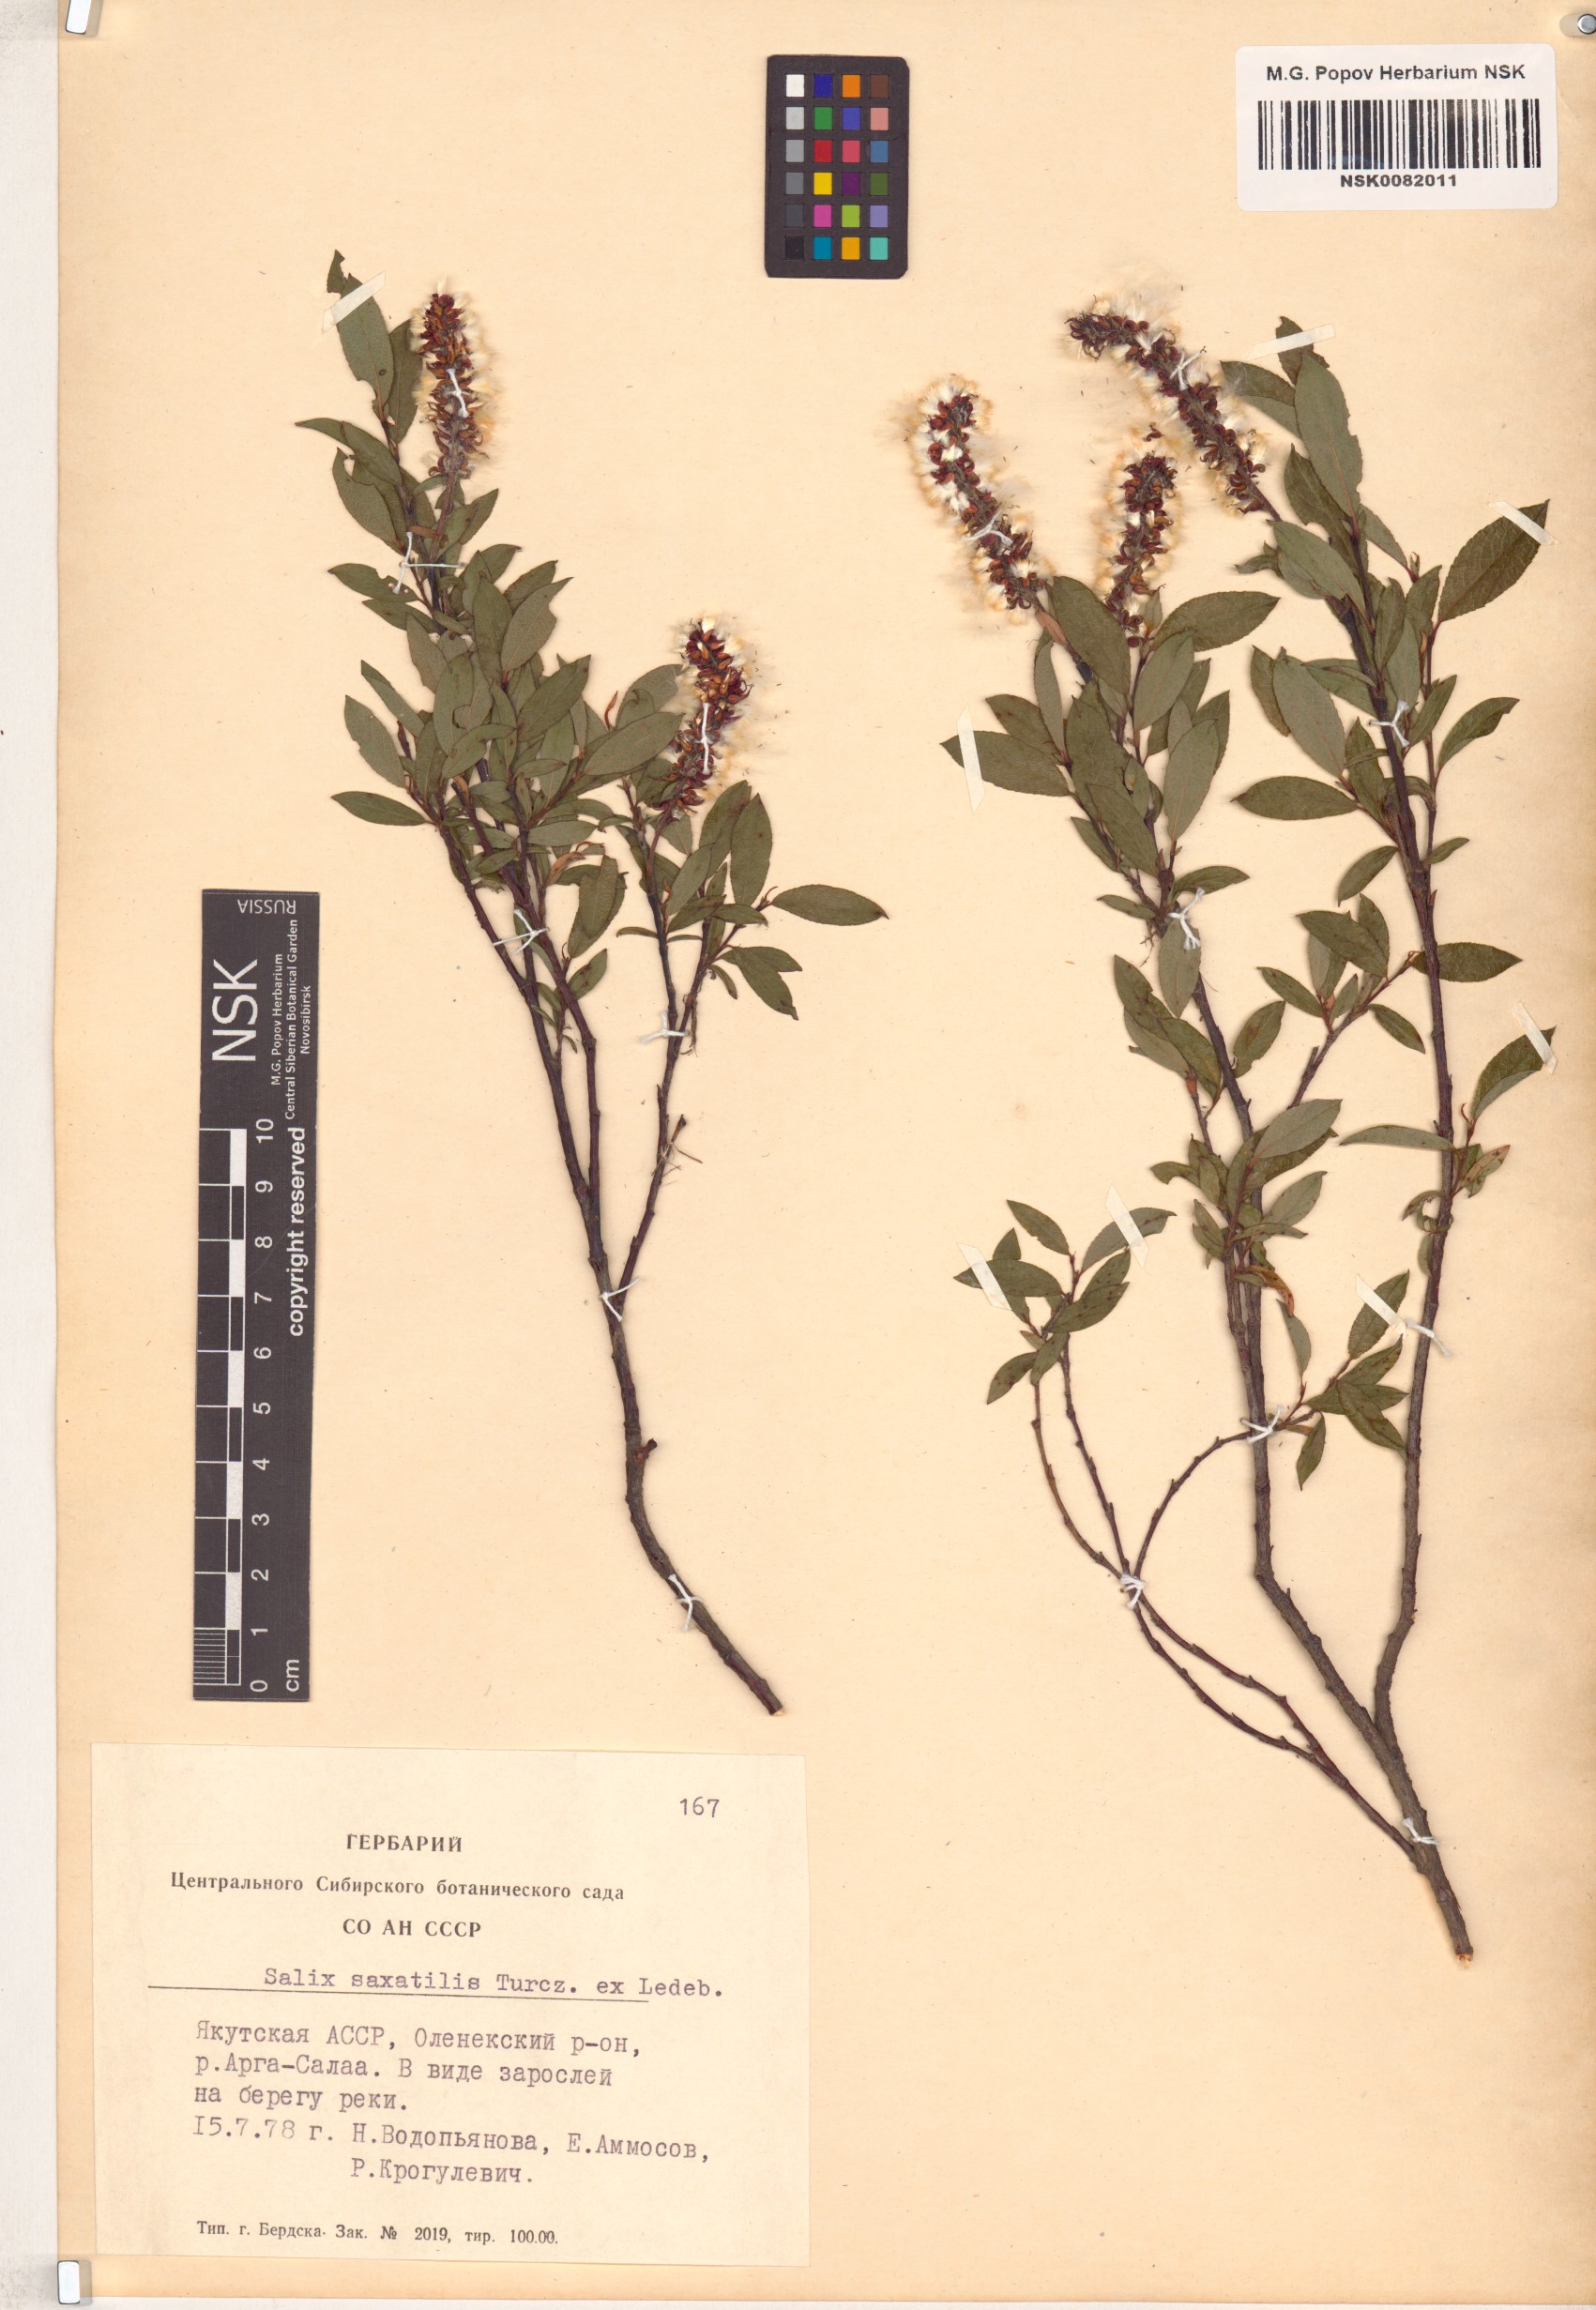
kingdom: Plantae
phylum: Tracheophyta
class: Magnoliopsida
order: Malpighiales
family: Salicaceae
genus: Salix
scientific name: Salix saxatilis
